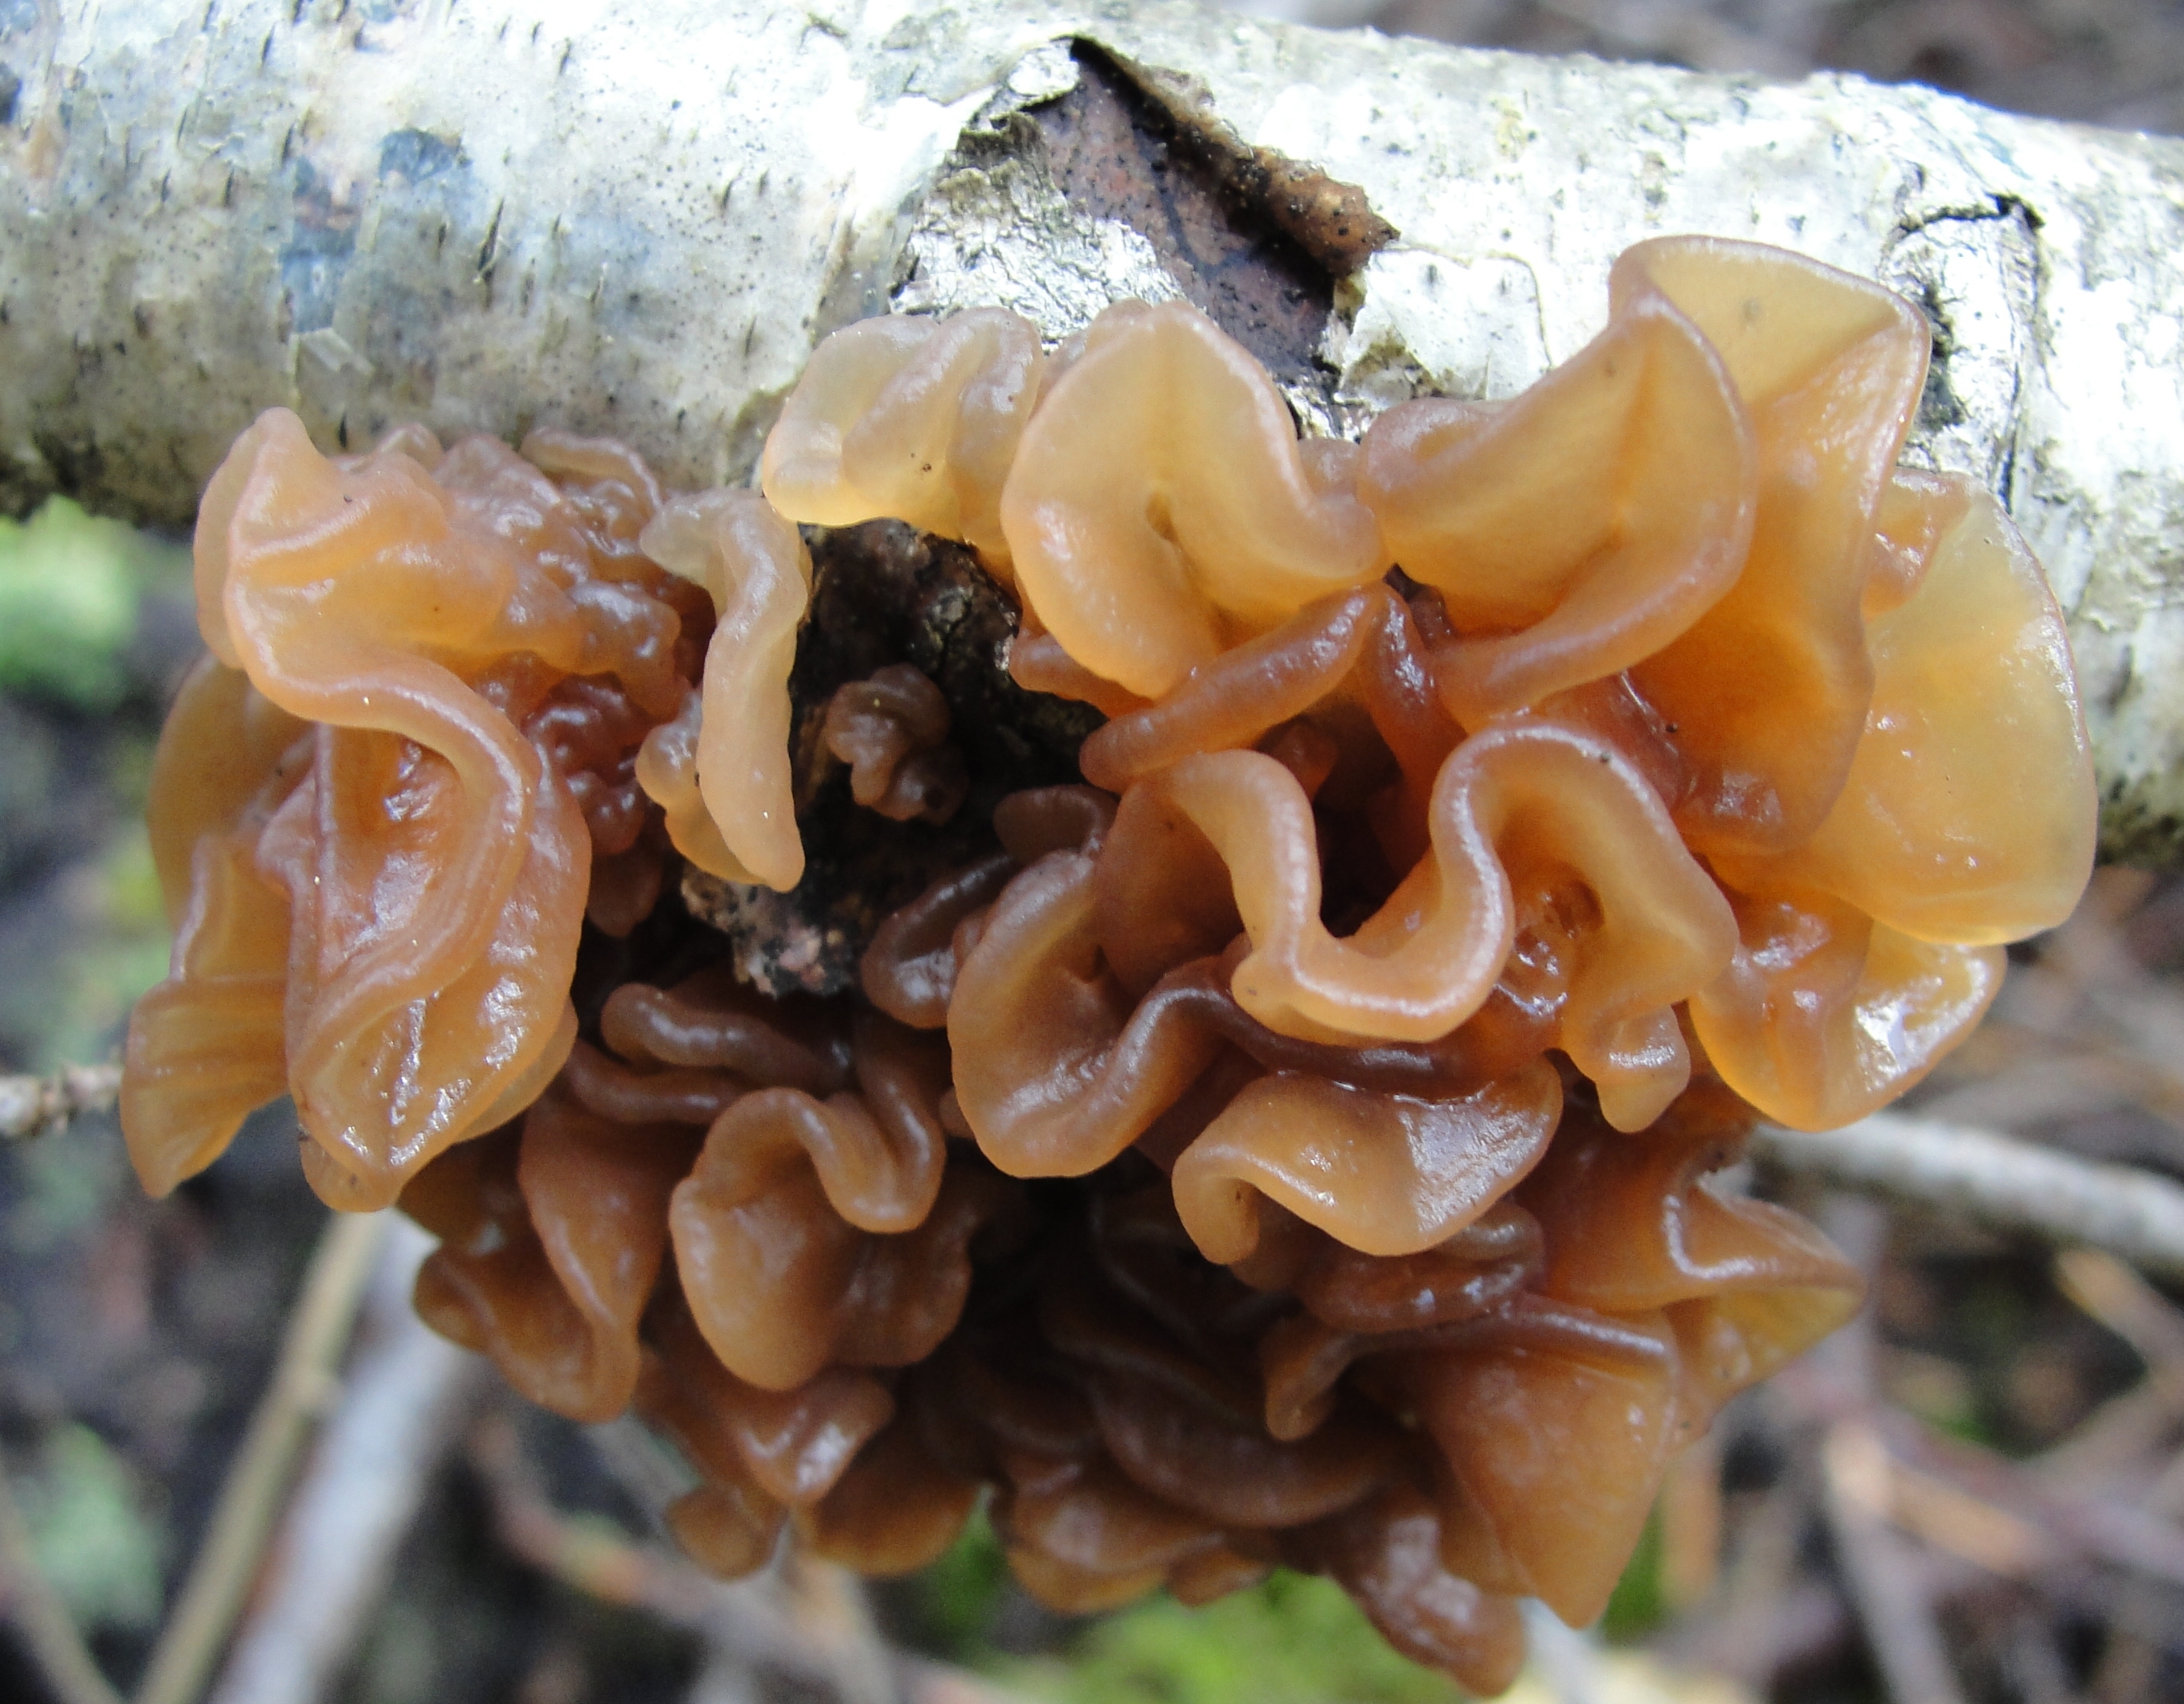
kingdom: Fungi
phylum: Basidiomycota
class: Tremellomycetes
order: Tremellales
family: Tremellaceae
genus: Phaeotremella
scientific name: Phaeotremella
